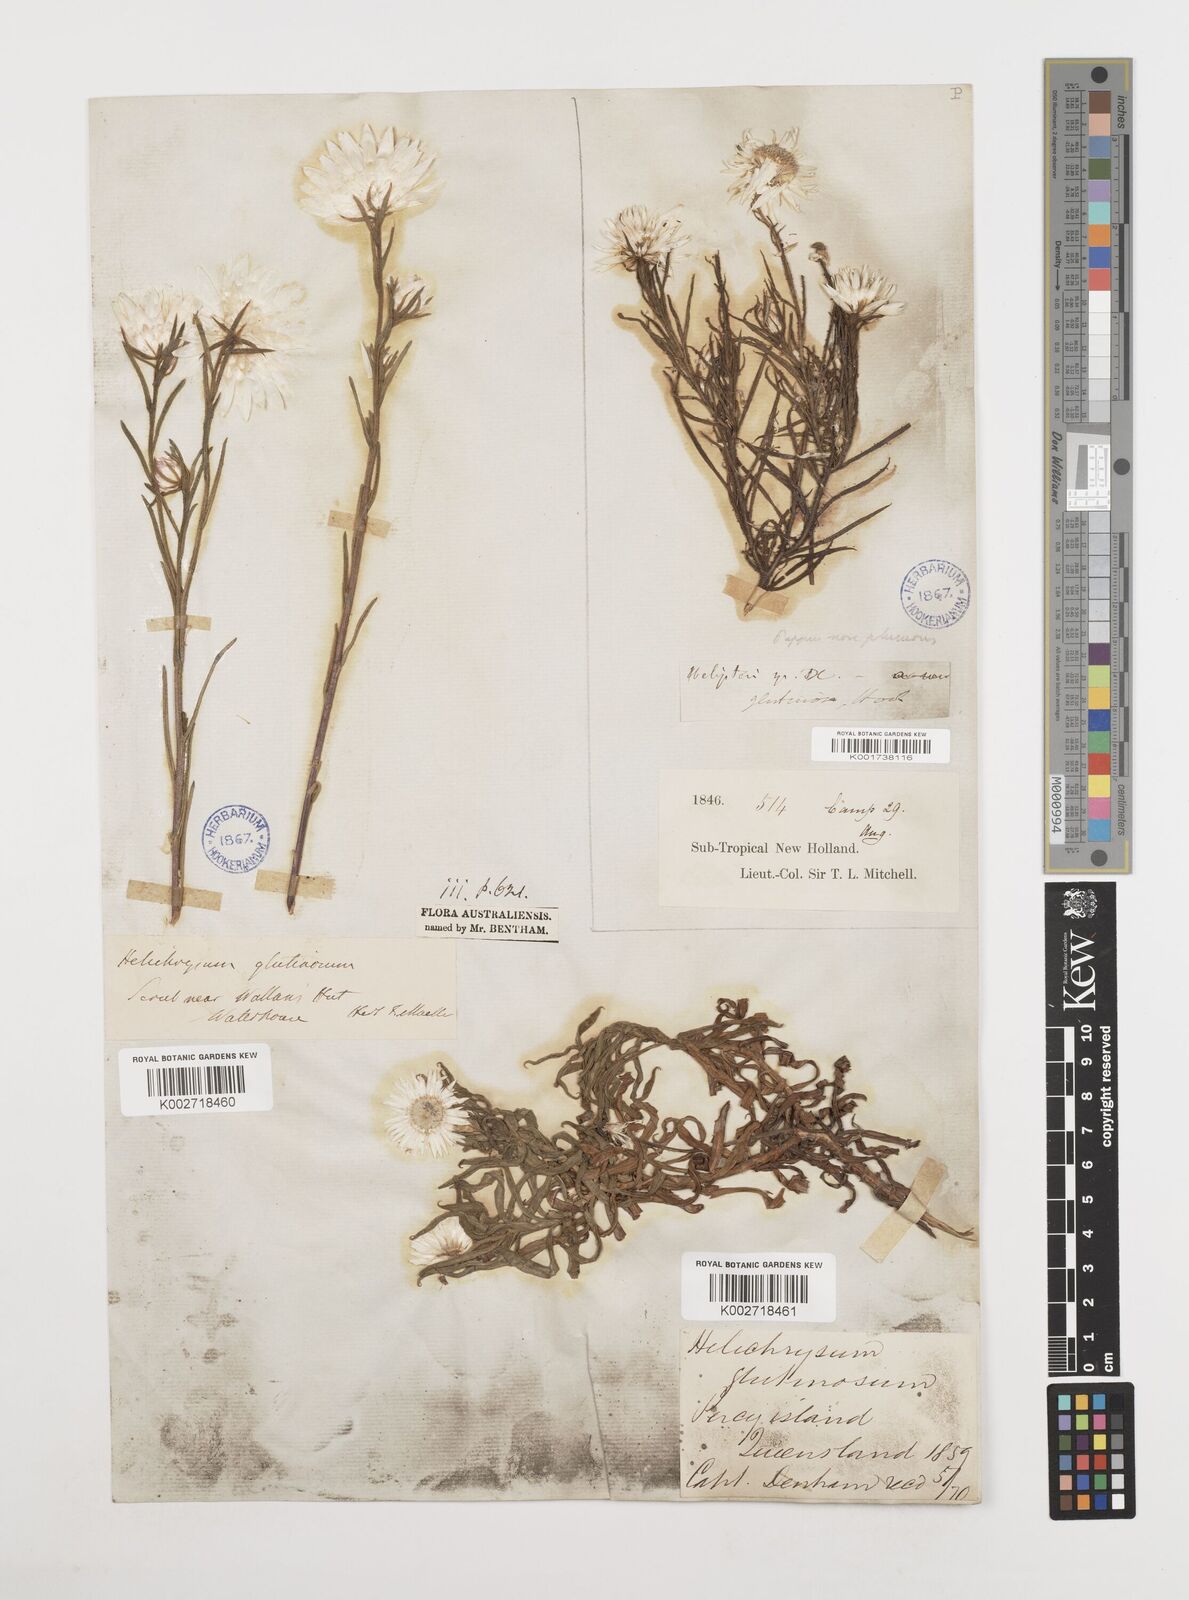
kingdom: Plantae
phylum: Tracheophyta
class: Magnoliopsida
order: Asterales
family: Asteraceae
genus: Coronidium
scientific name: Coronidium glutinosum
